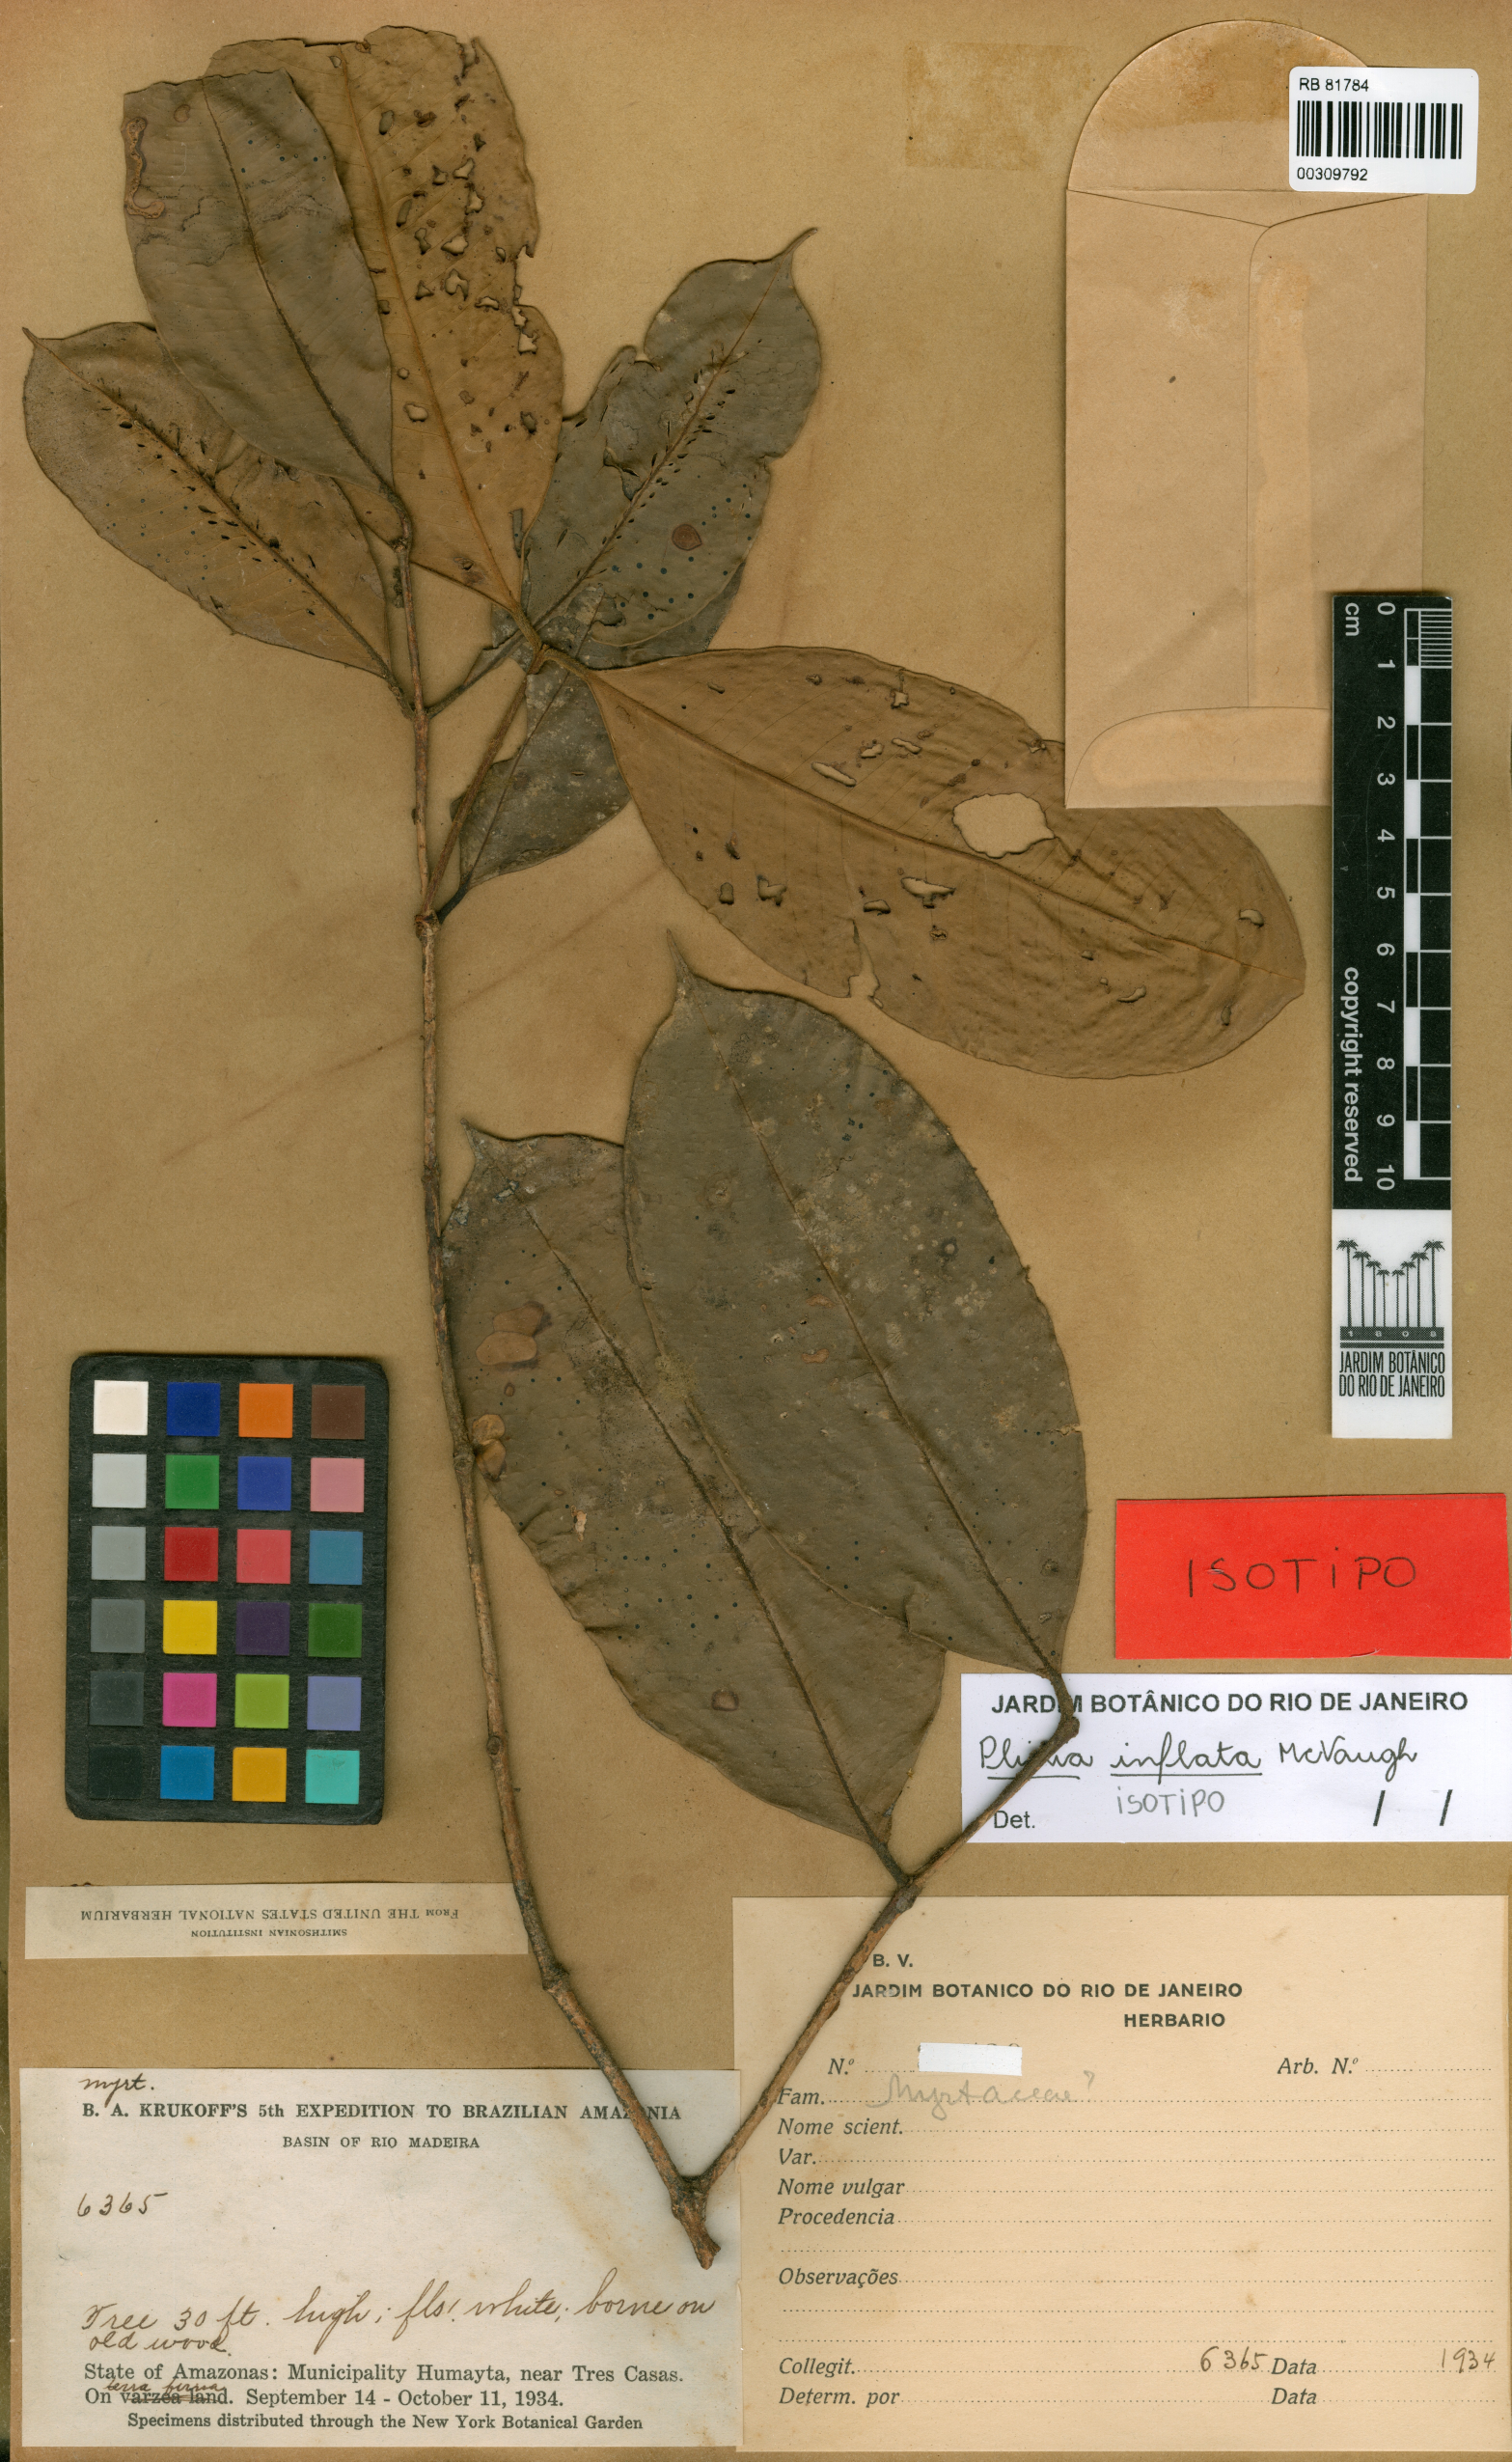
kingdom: Plantae
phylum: Tracheophyta
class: Magnoliopsida
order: Myrtales
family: Myrtaceae
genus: Plinia
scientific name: Plinia inflata
